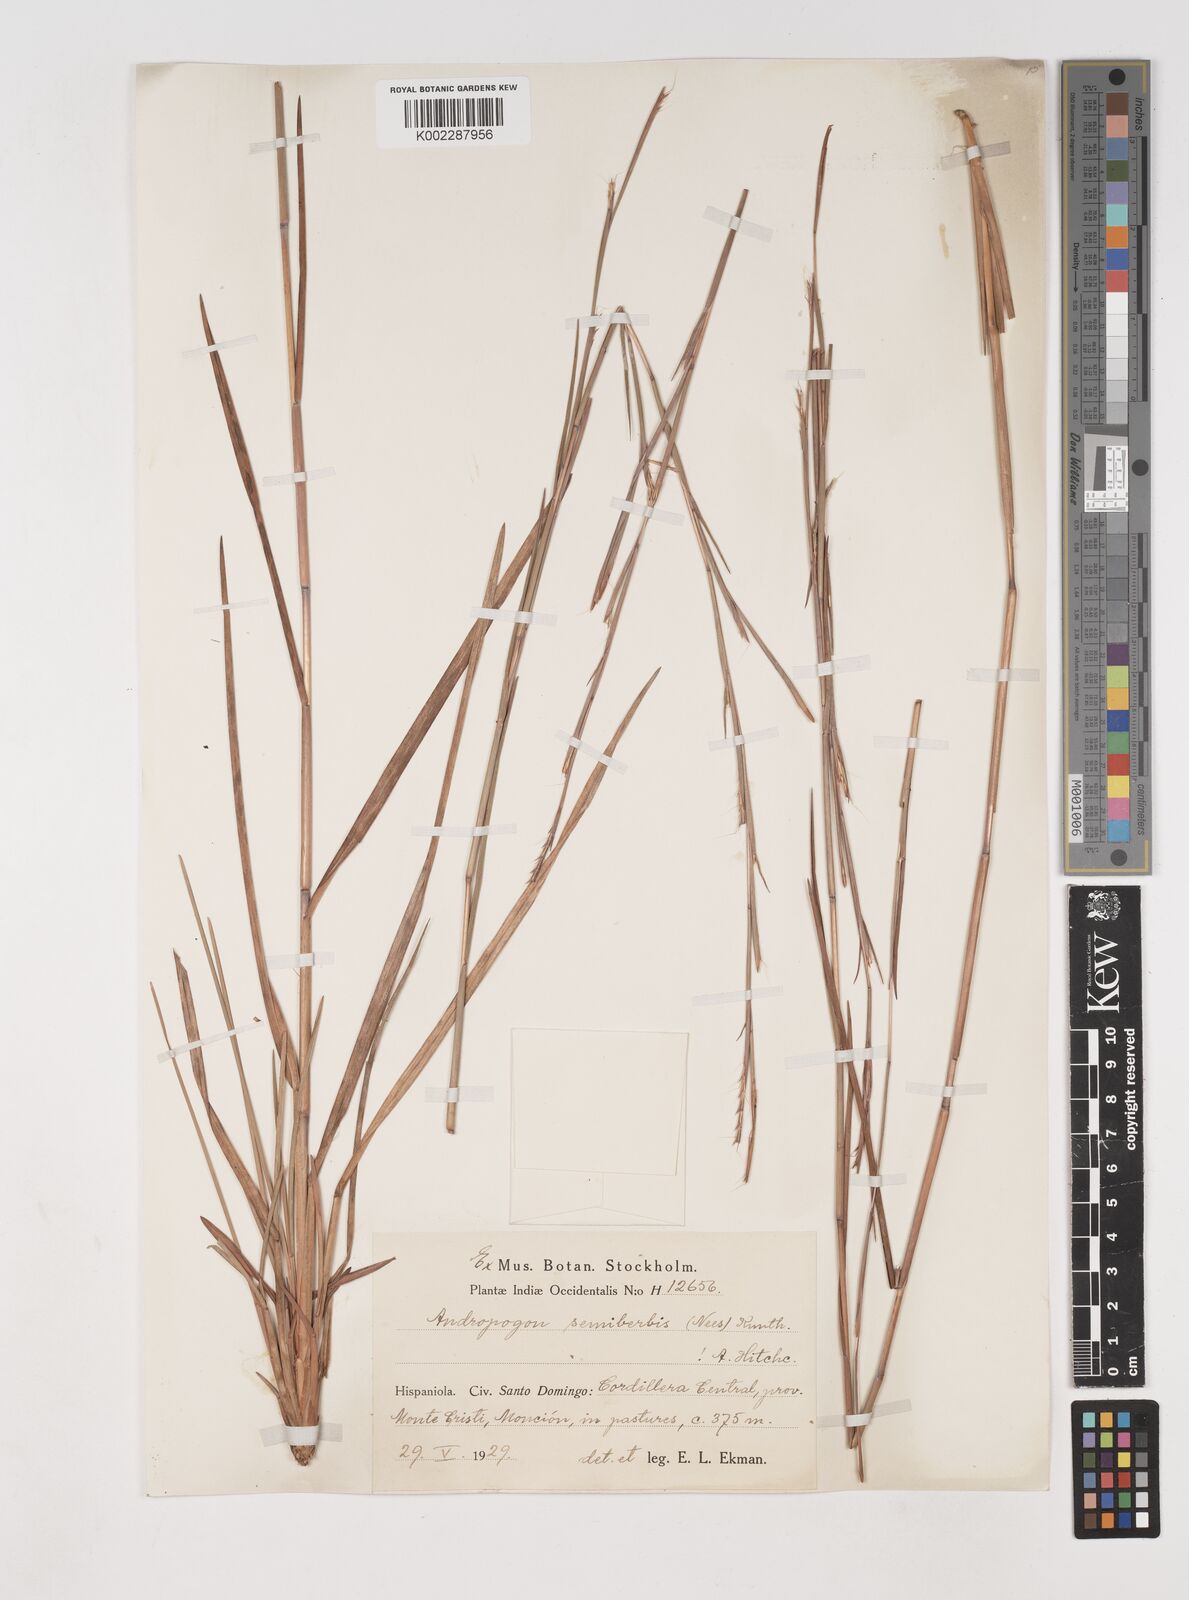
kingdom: Plantae
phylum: Tracheophyta
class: Liliopsida
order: Poales
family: Poaceae
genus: Schizachyrium
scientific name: Schizachyrium sanguineum
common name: Crimson bluestem
